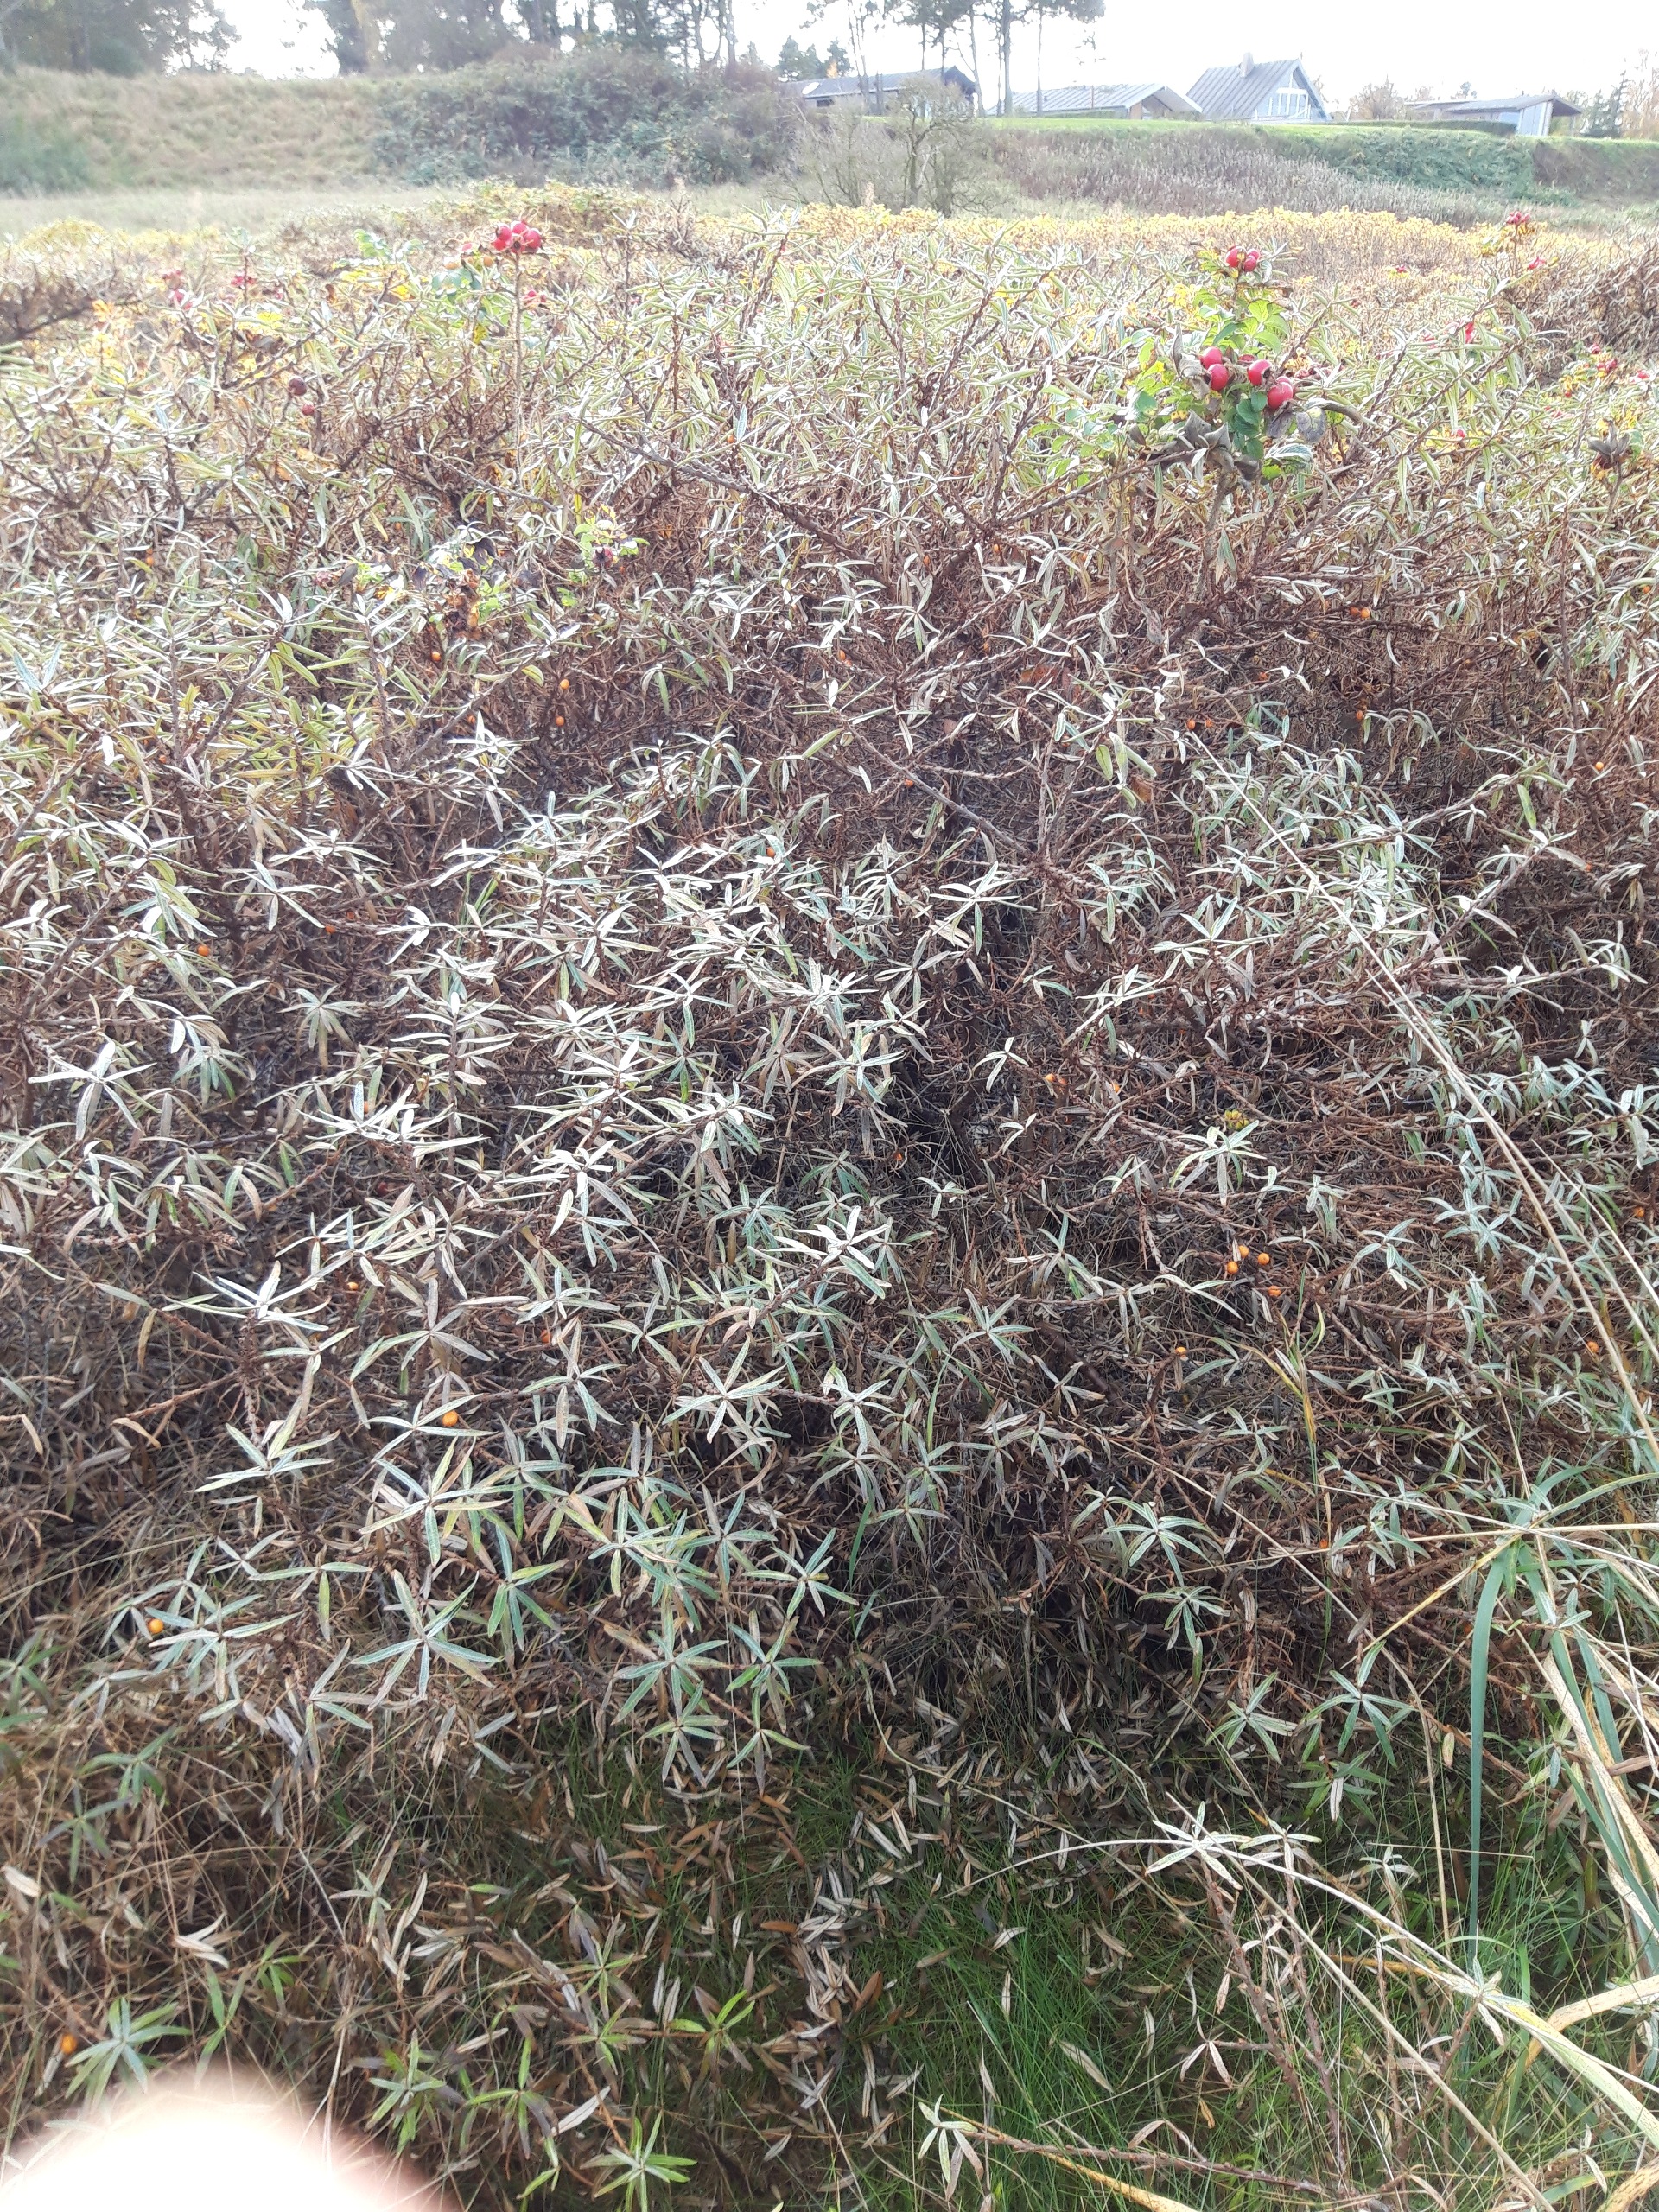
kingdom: Plantae
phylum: Tracheophyta
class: Magnoliopsida
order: Rosales
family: Elaeagnaceae
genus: Hippophae
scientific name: Hippophae rhamnoides
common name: Havtorn
